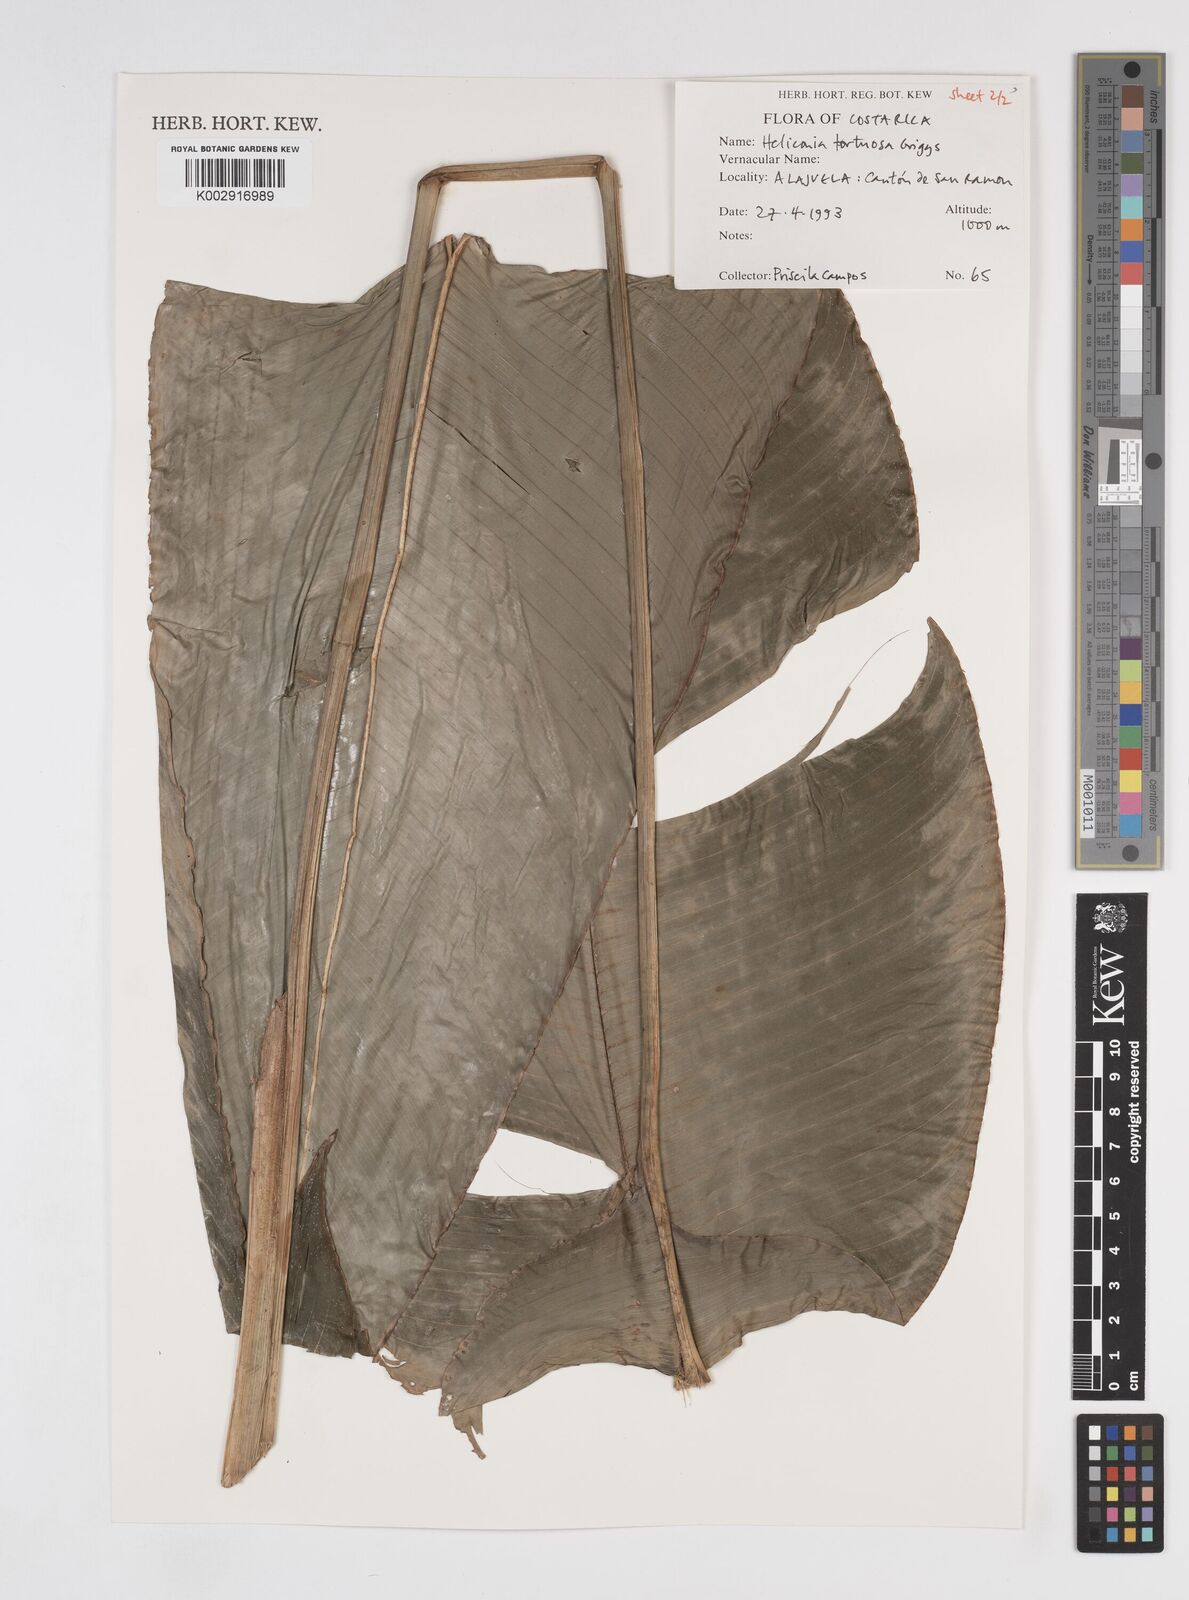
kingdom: Plantae
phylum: Tracheophyta
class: Liliopsida
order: Zingiberales
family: Heliconiaceae
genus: Heliconia
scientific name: Heliconia tortuosa
